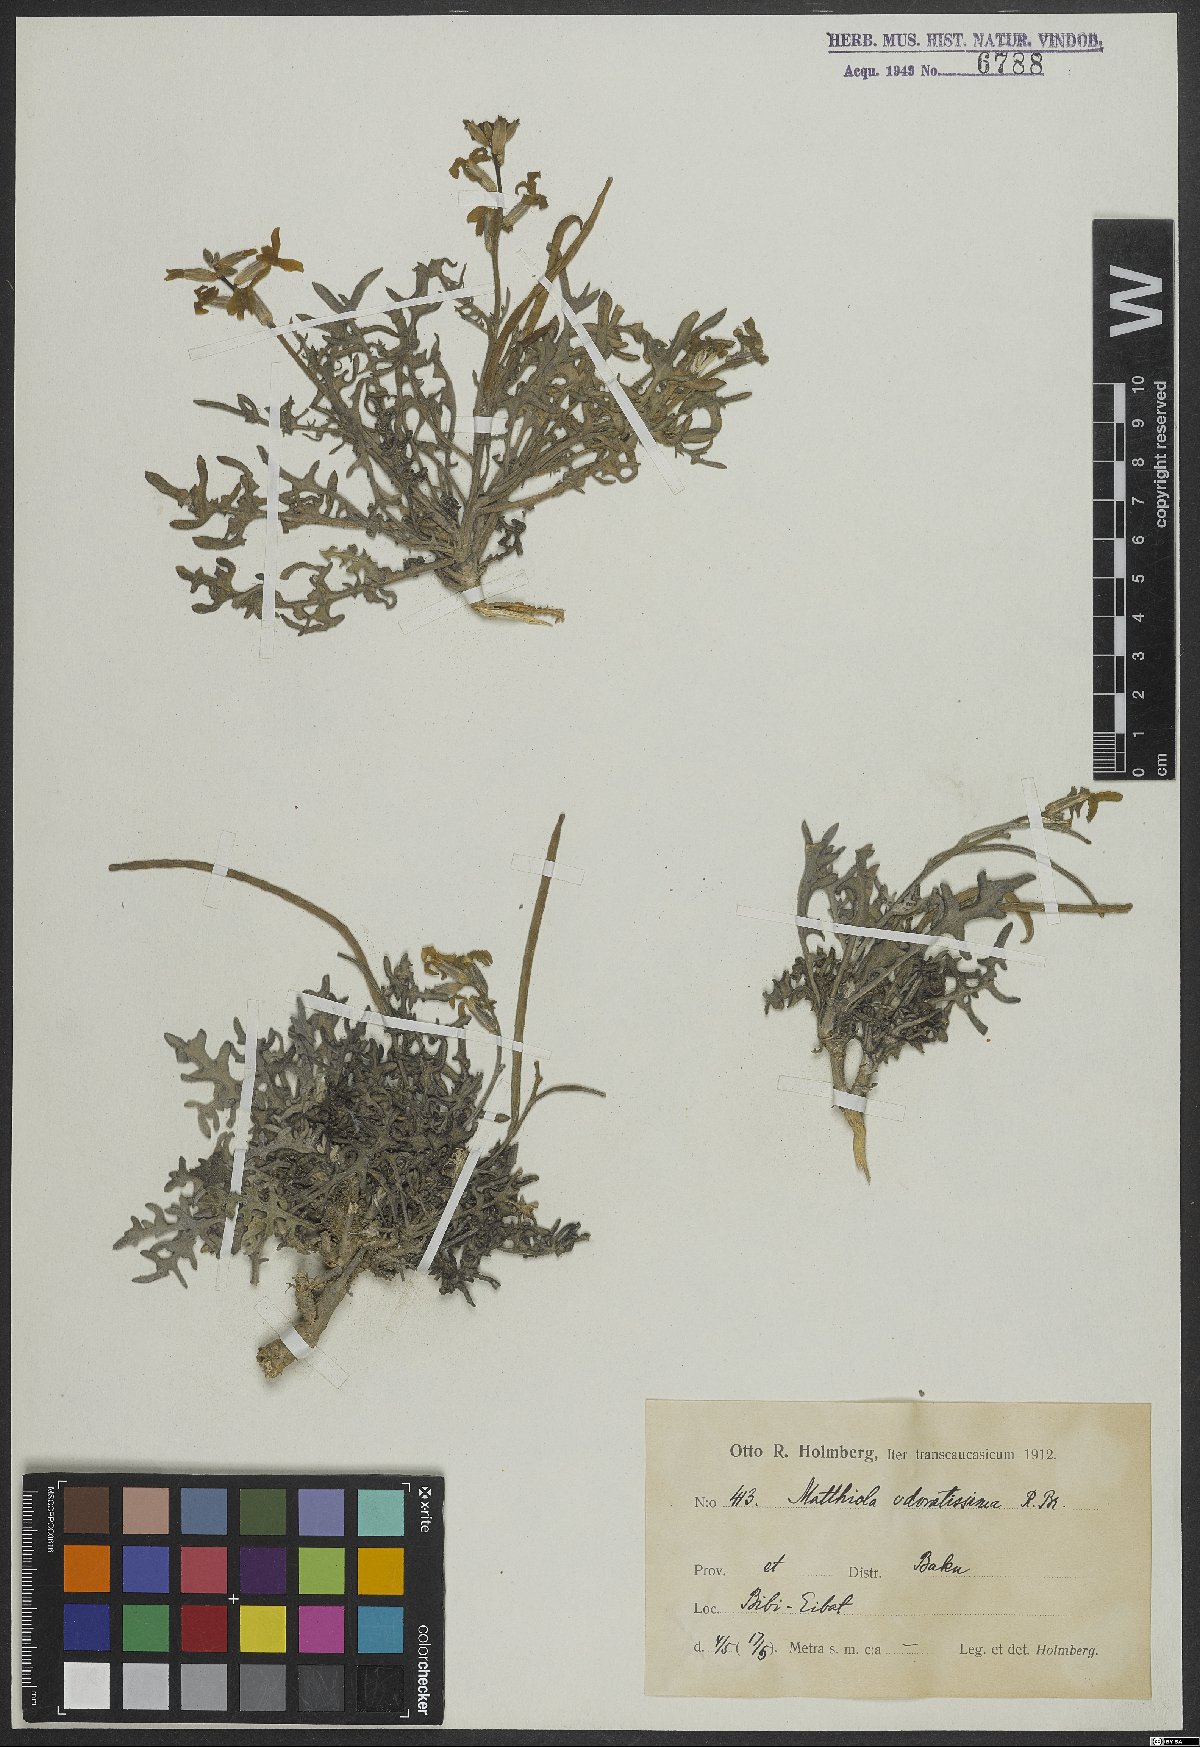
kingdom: Plantae
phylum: Tracheophyta
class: Magnoliopsida
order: Brassicales
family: Brassicaceae
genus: Matthiola
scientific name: Matthiola odoratissima
